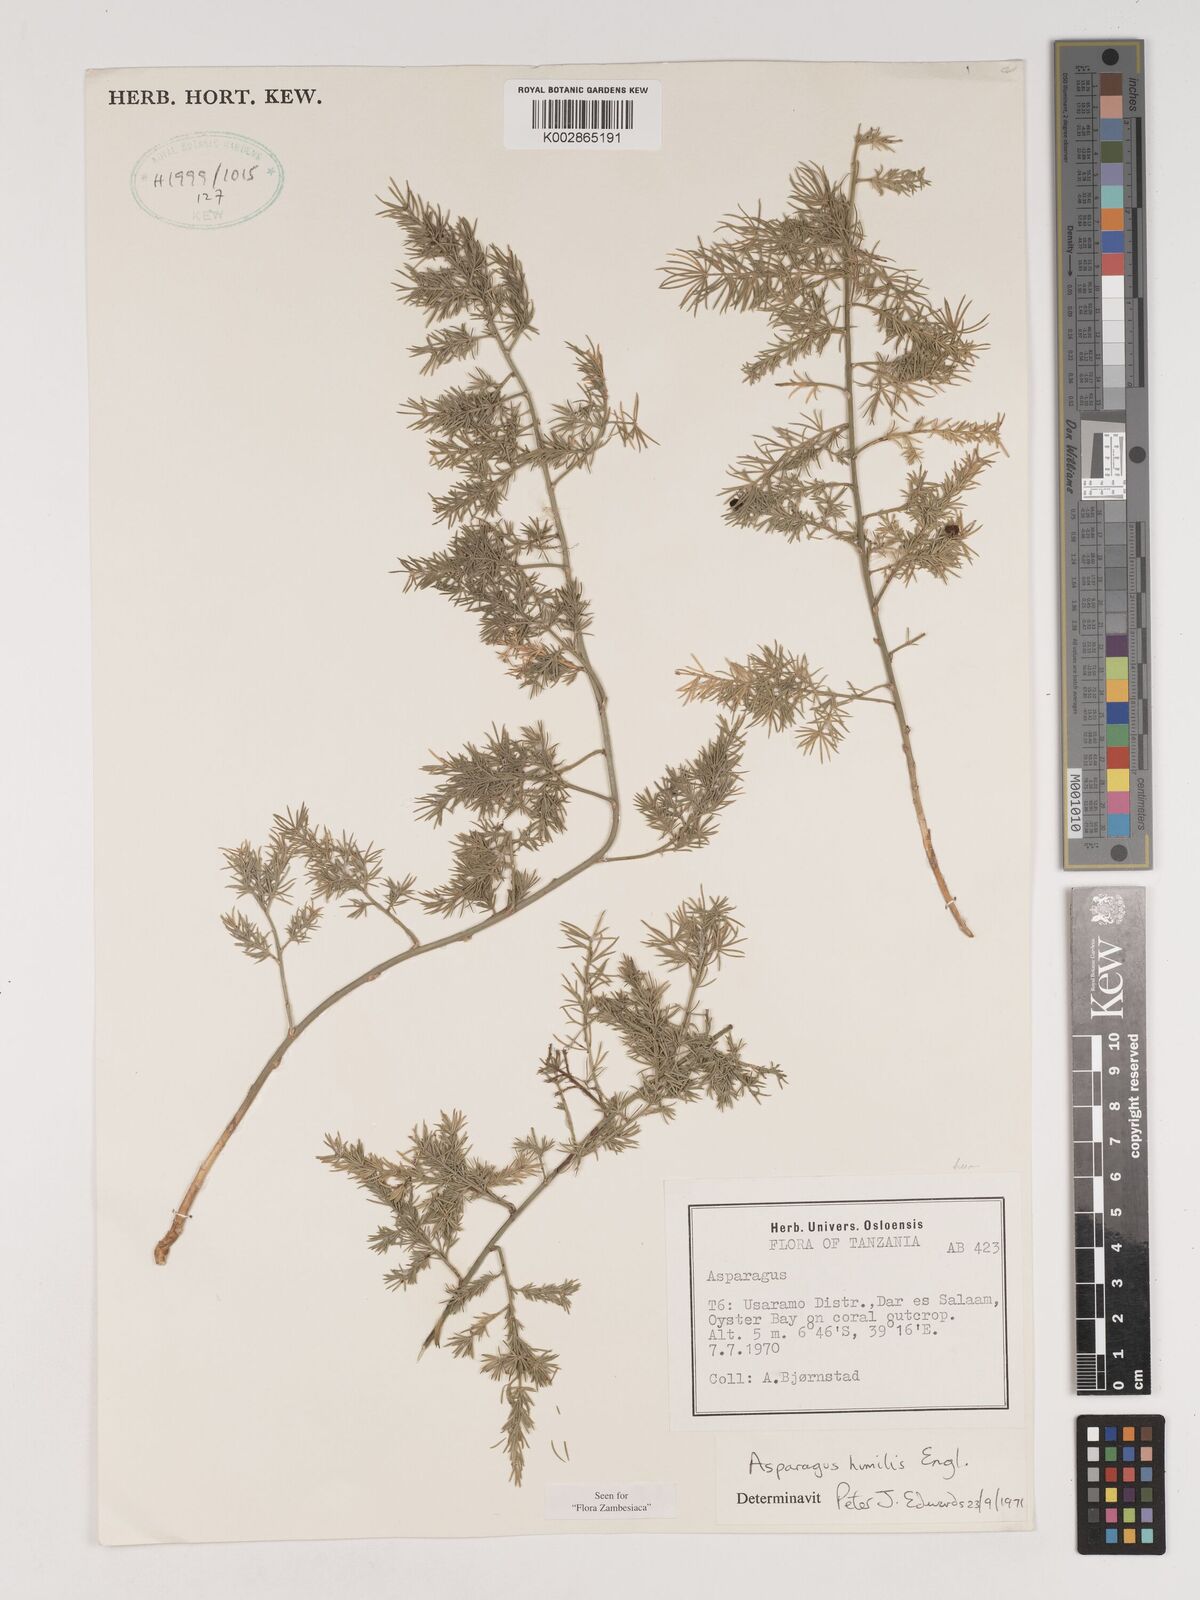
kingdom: Plantae
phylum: Tracheophyta
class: Liliopsida
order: Asparagales
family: Asparagaceae
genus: Asparagus
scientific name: Asparagus asparagoides
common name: African asparagus fern
